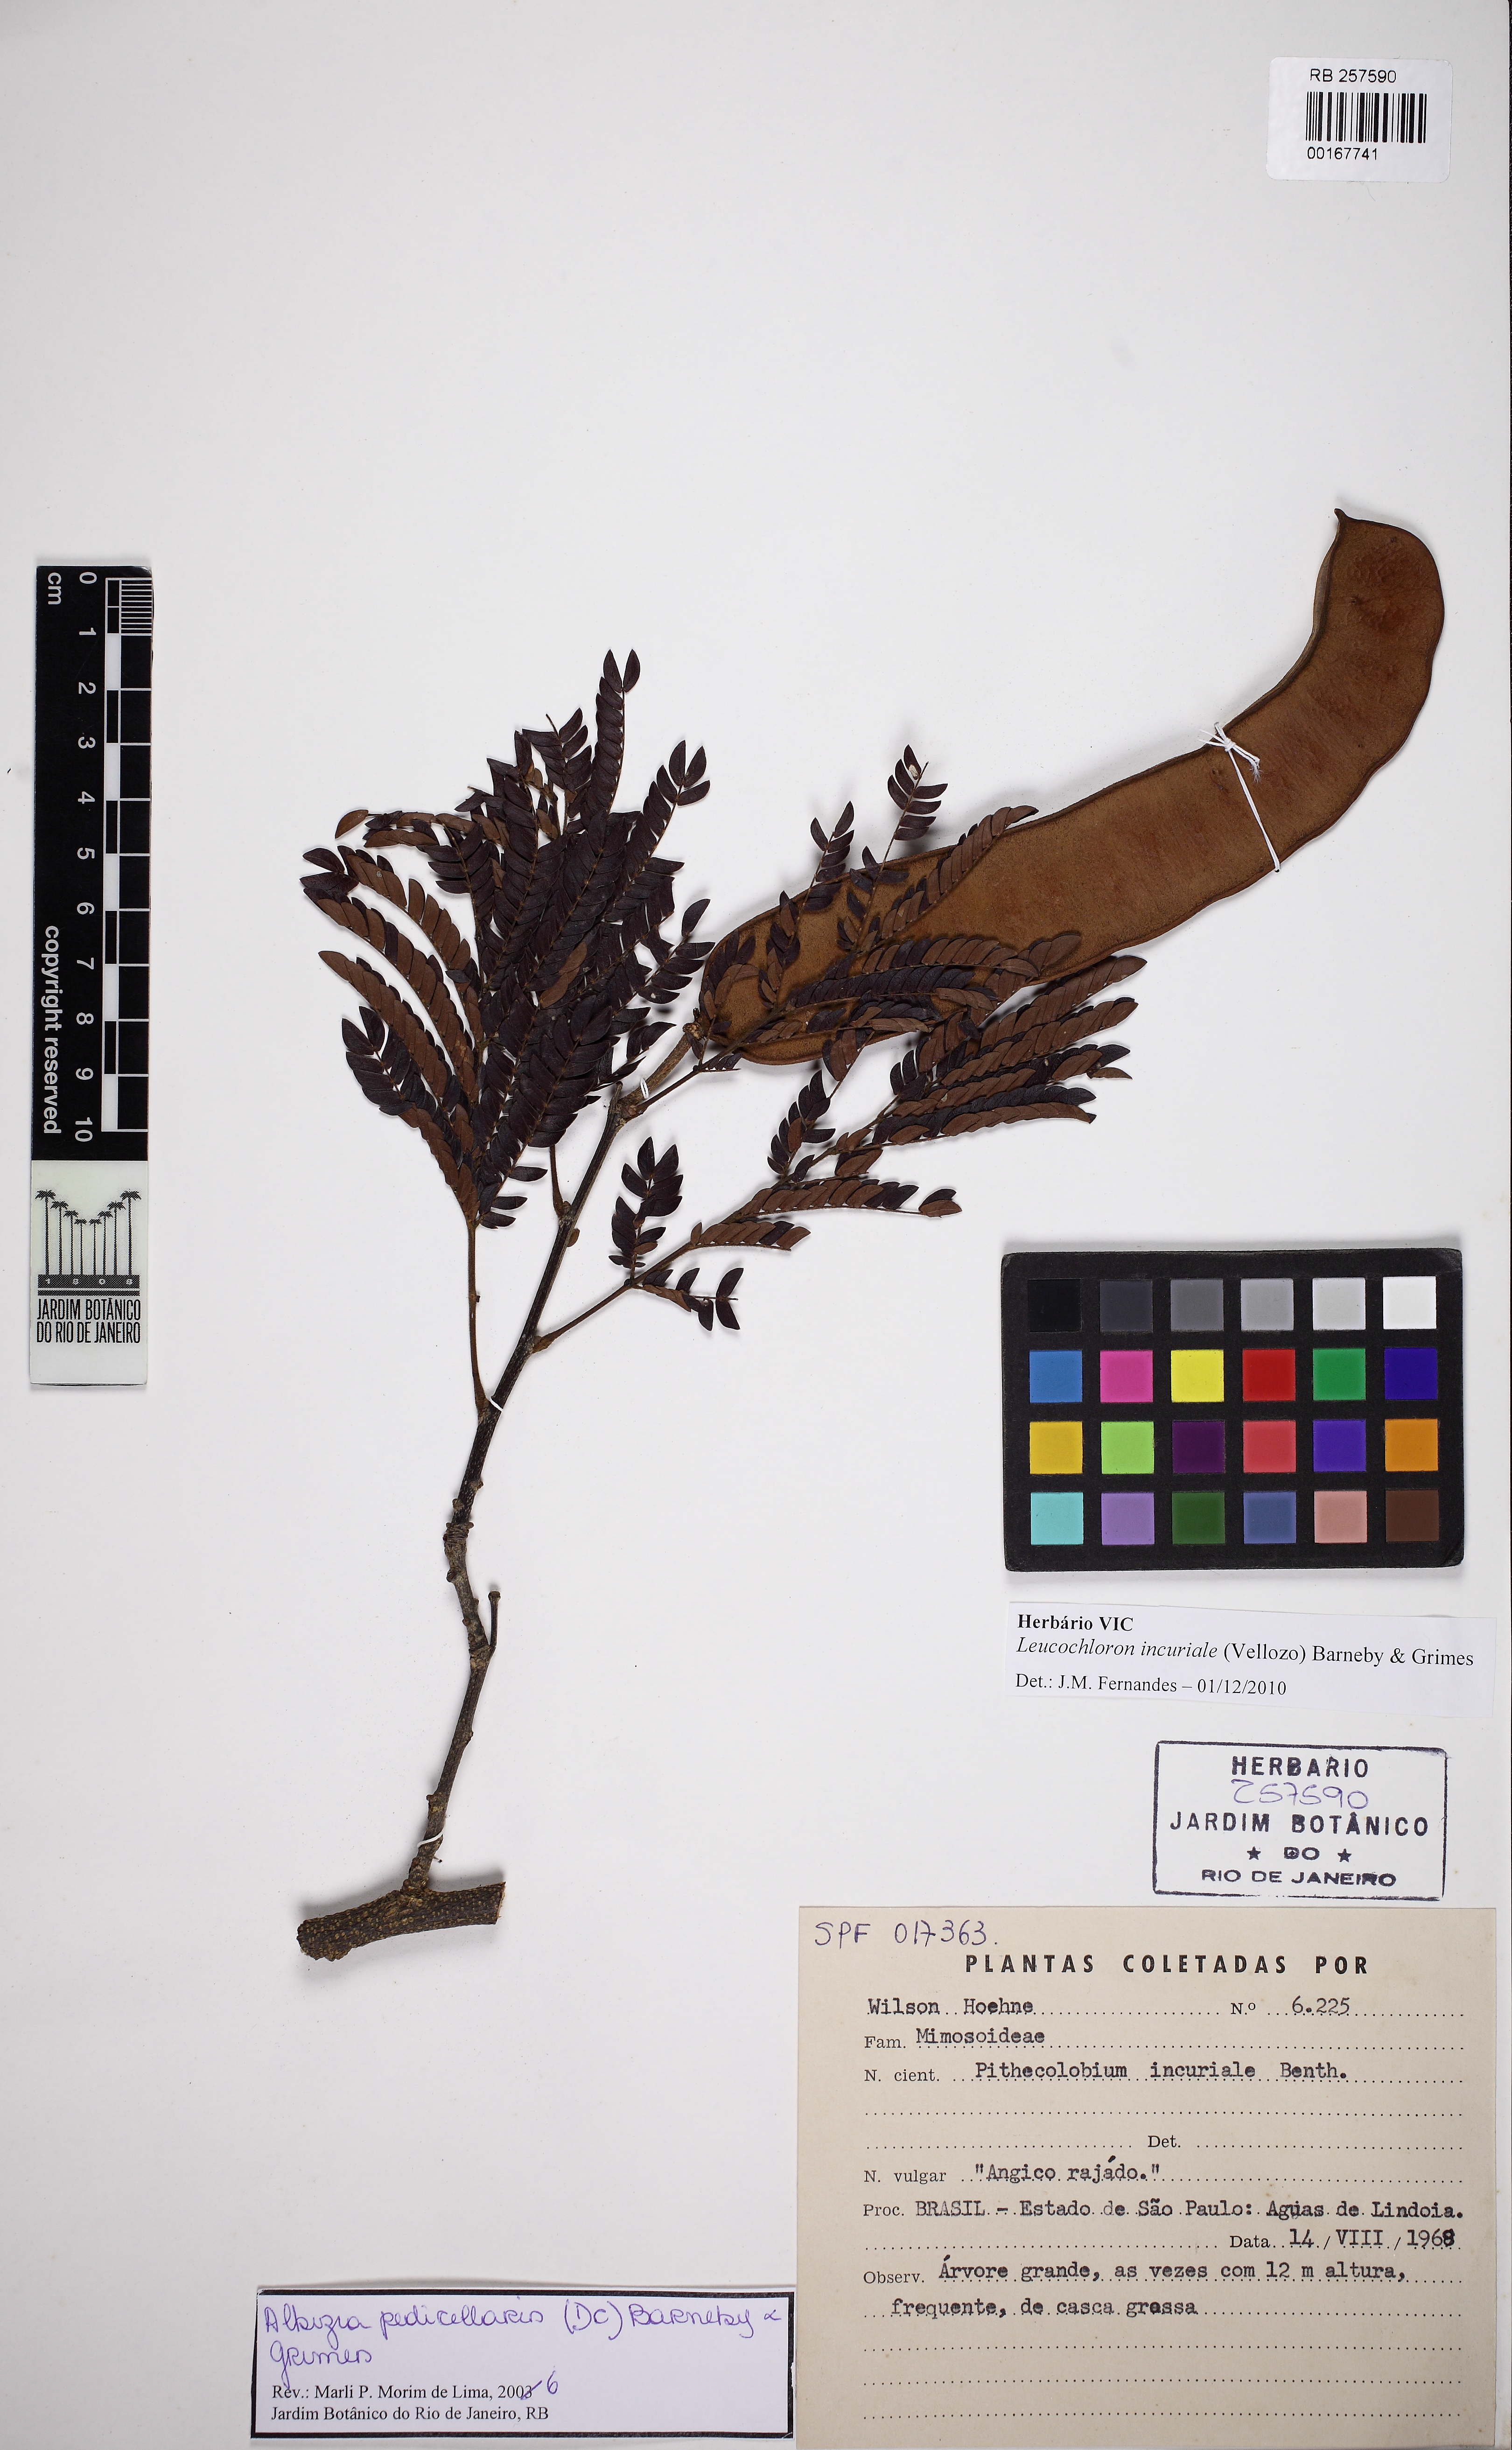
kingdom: Plantae
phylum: Tracheophyta
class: Magnoliopsida
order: Fabales
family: Fabaceae
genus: Leucochloron
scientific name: Leucochloron incuriale
